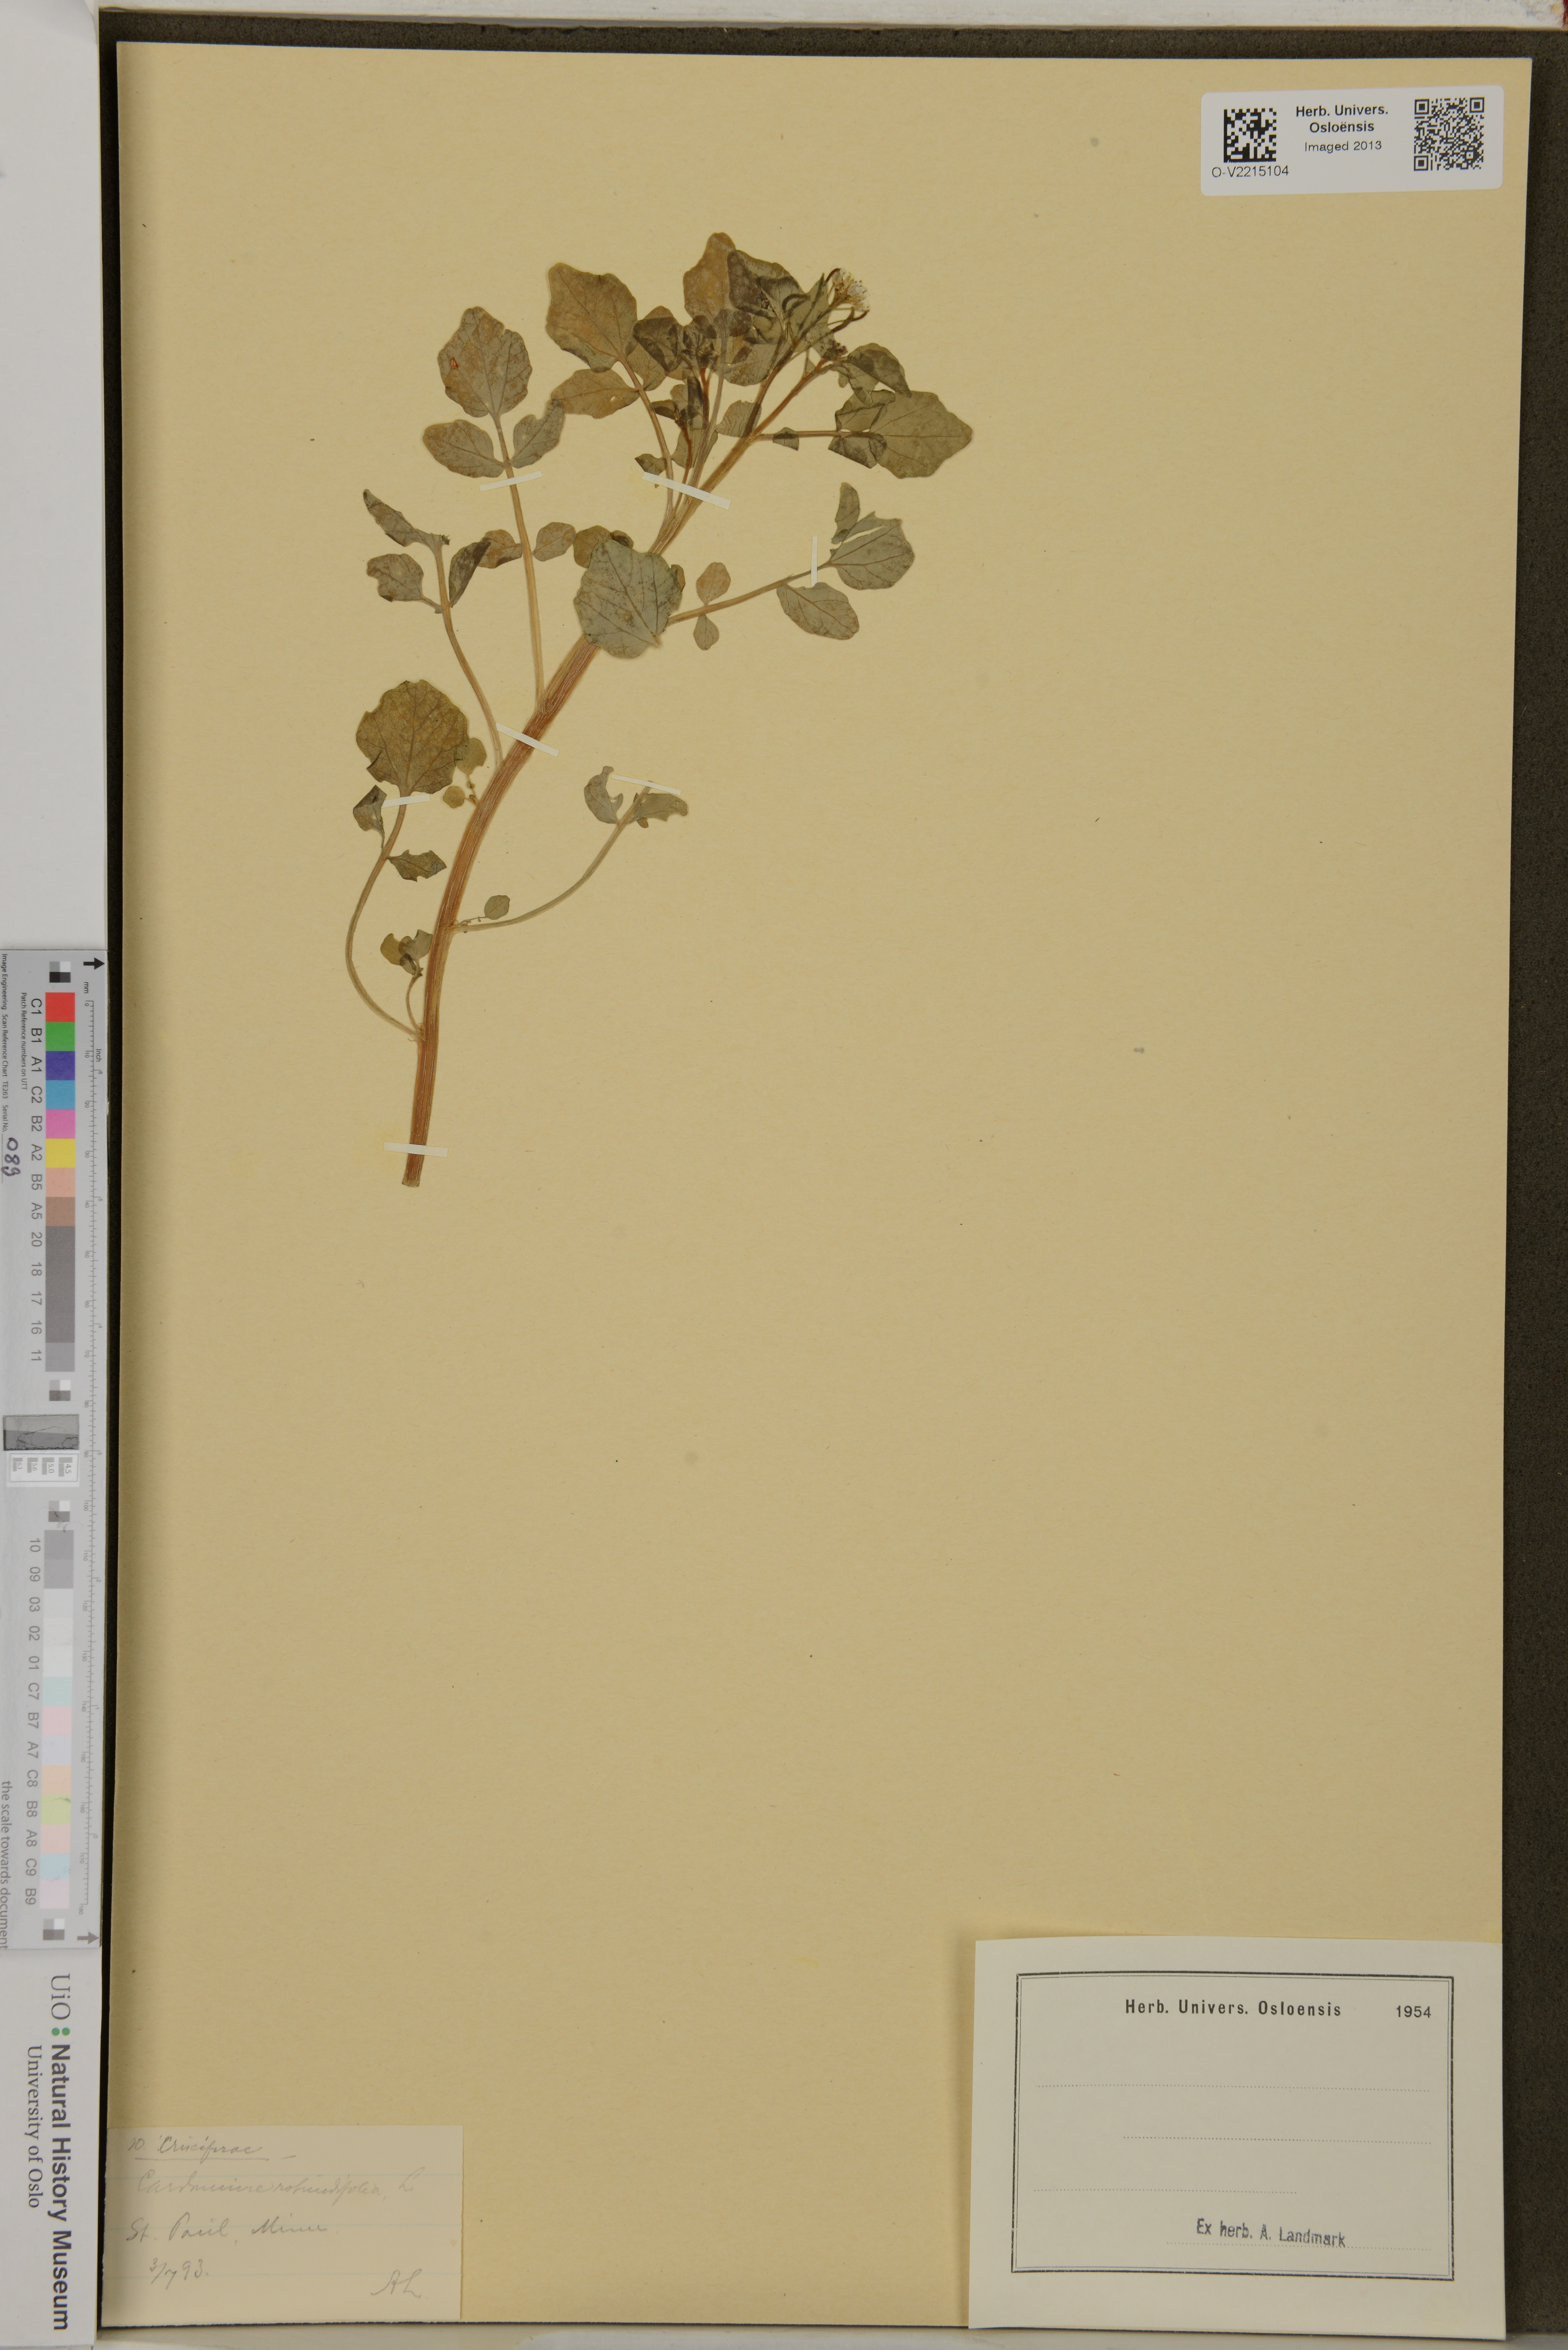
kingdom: Plantae
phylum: Tracheophyta
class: Magnoliopsida
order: Brassicales
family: Brassicaceae
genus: Cardamine
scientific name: Cardamine rotundifolia
